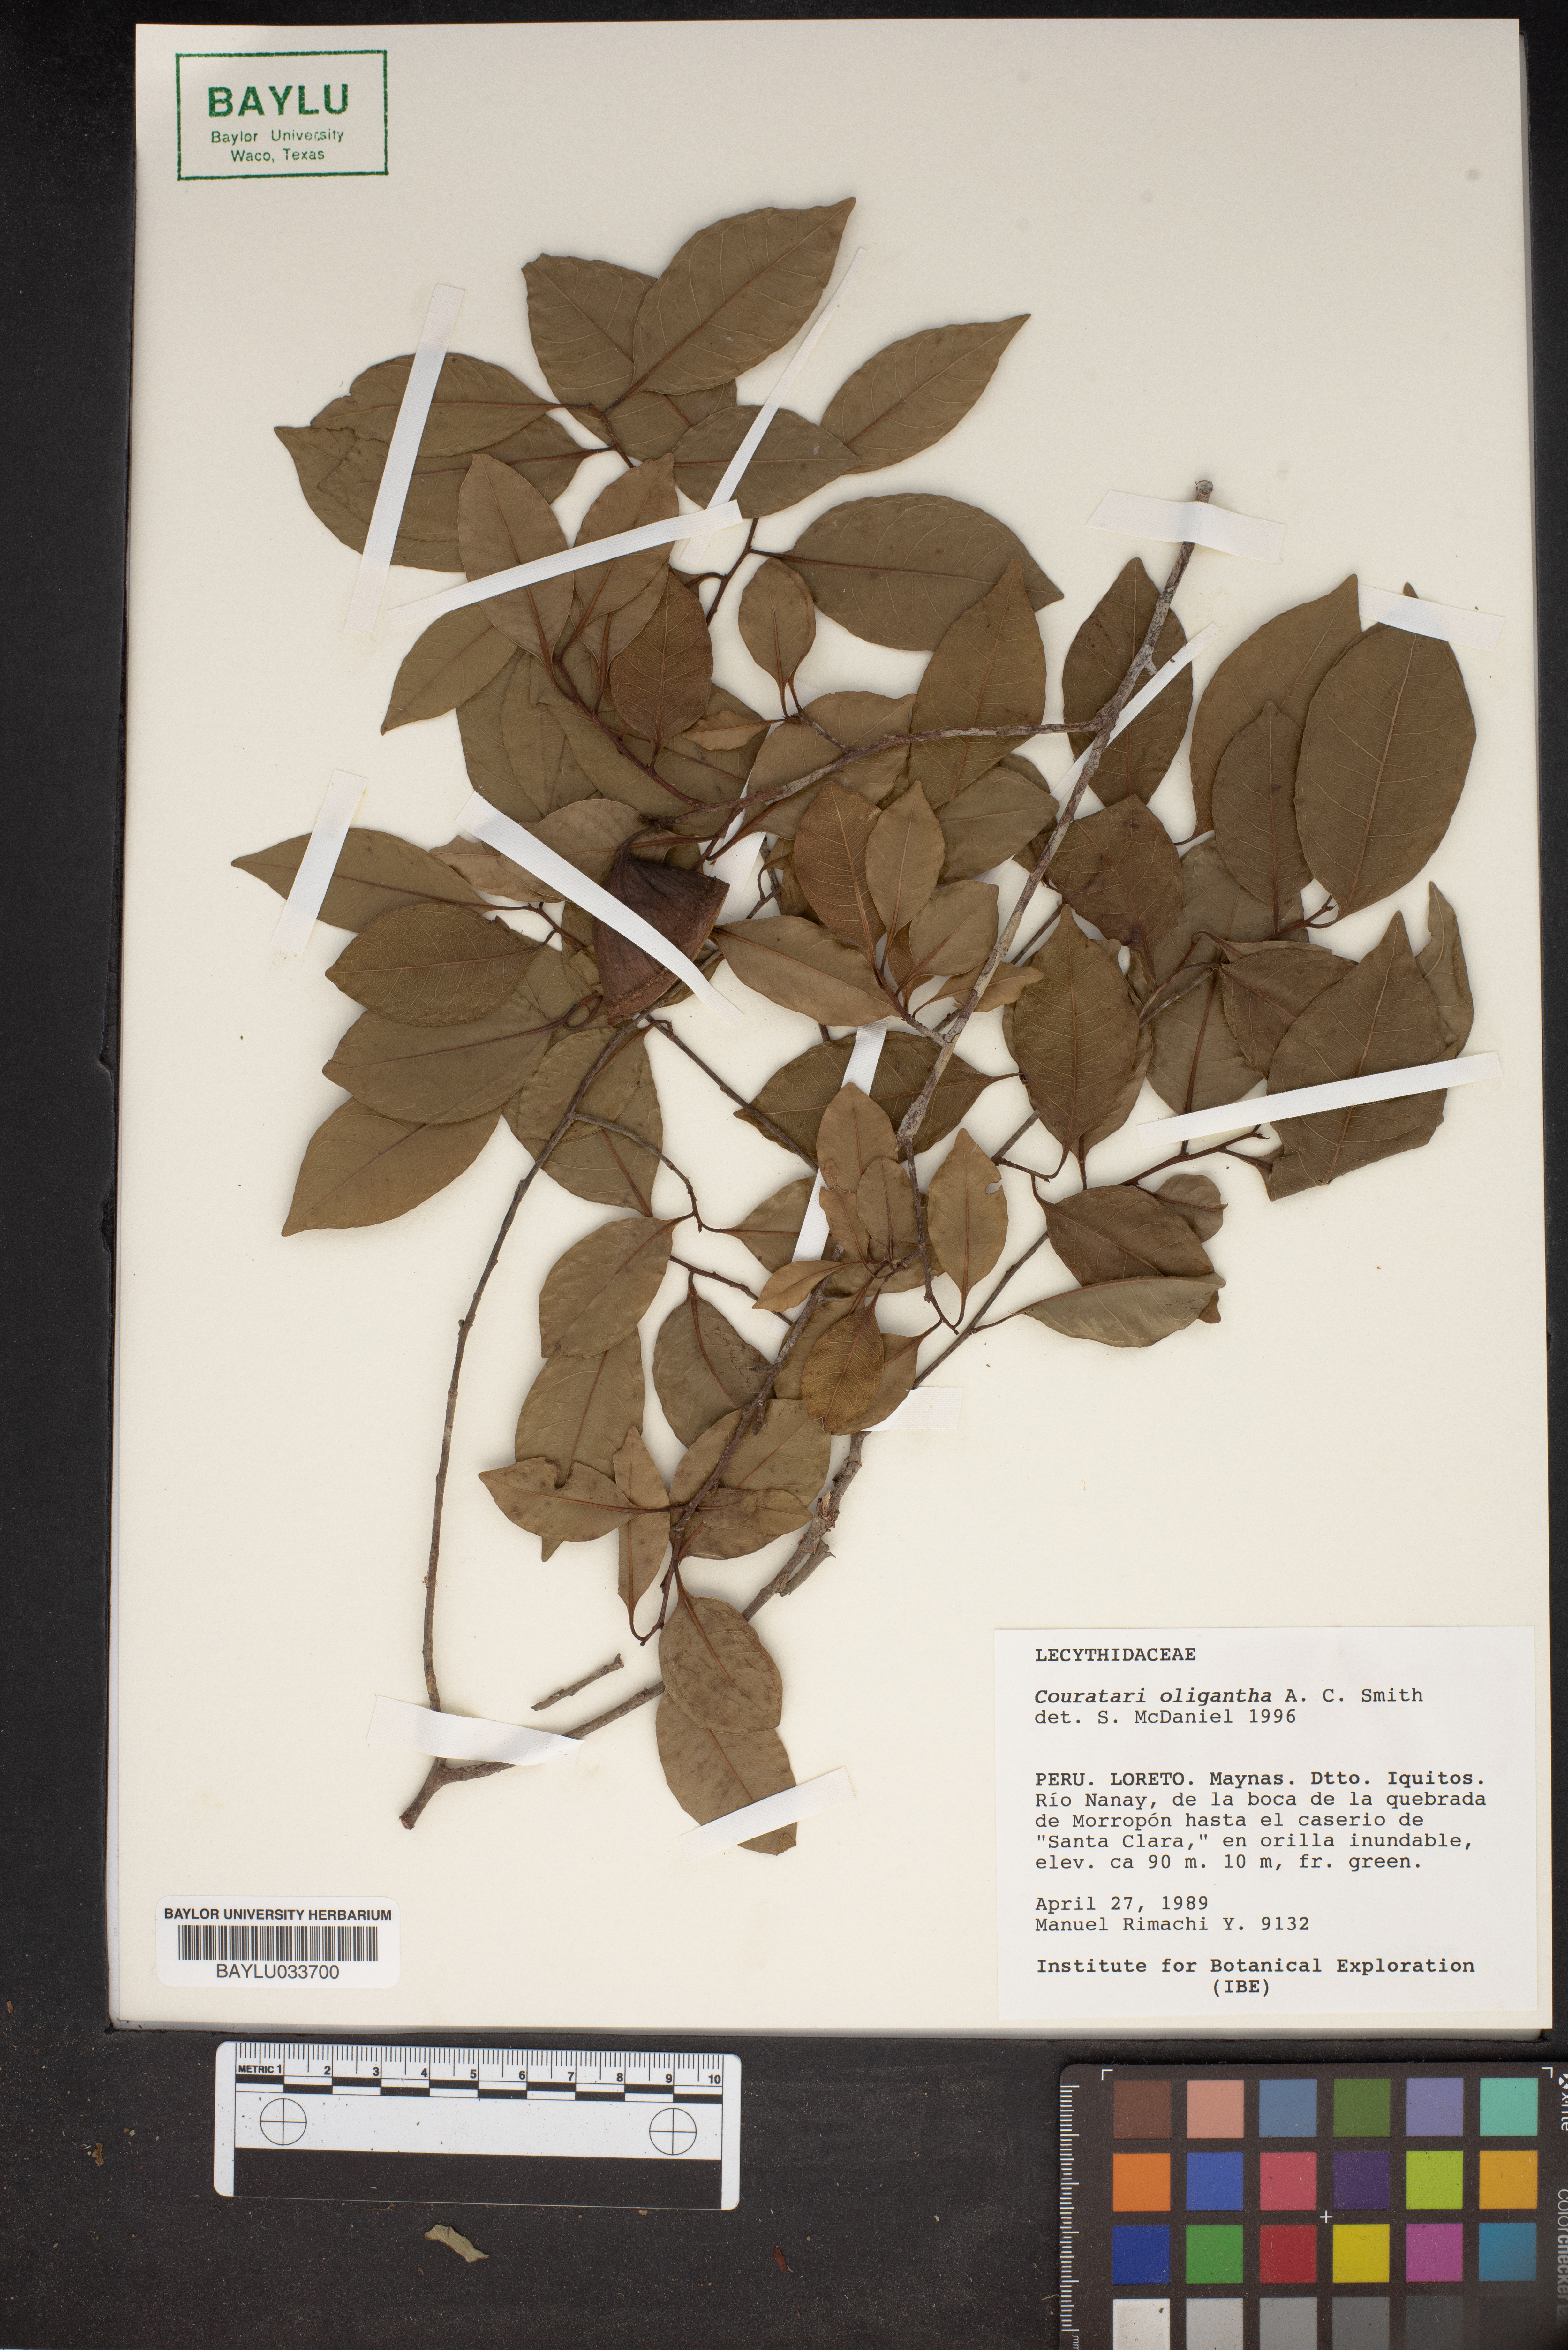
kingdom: Plantae
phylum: Tracheophyta
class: Magnoliopsida
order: Ericales
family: Lecythidaceae
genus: Couratari
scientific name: Couratari oligantha
